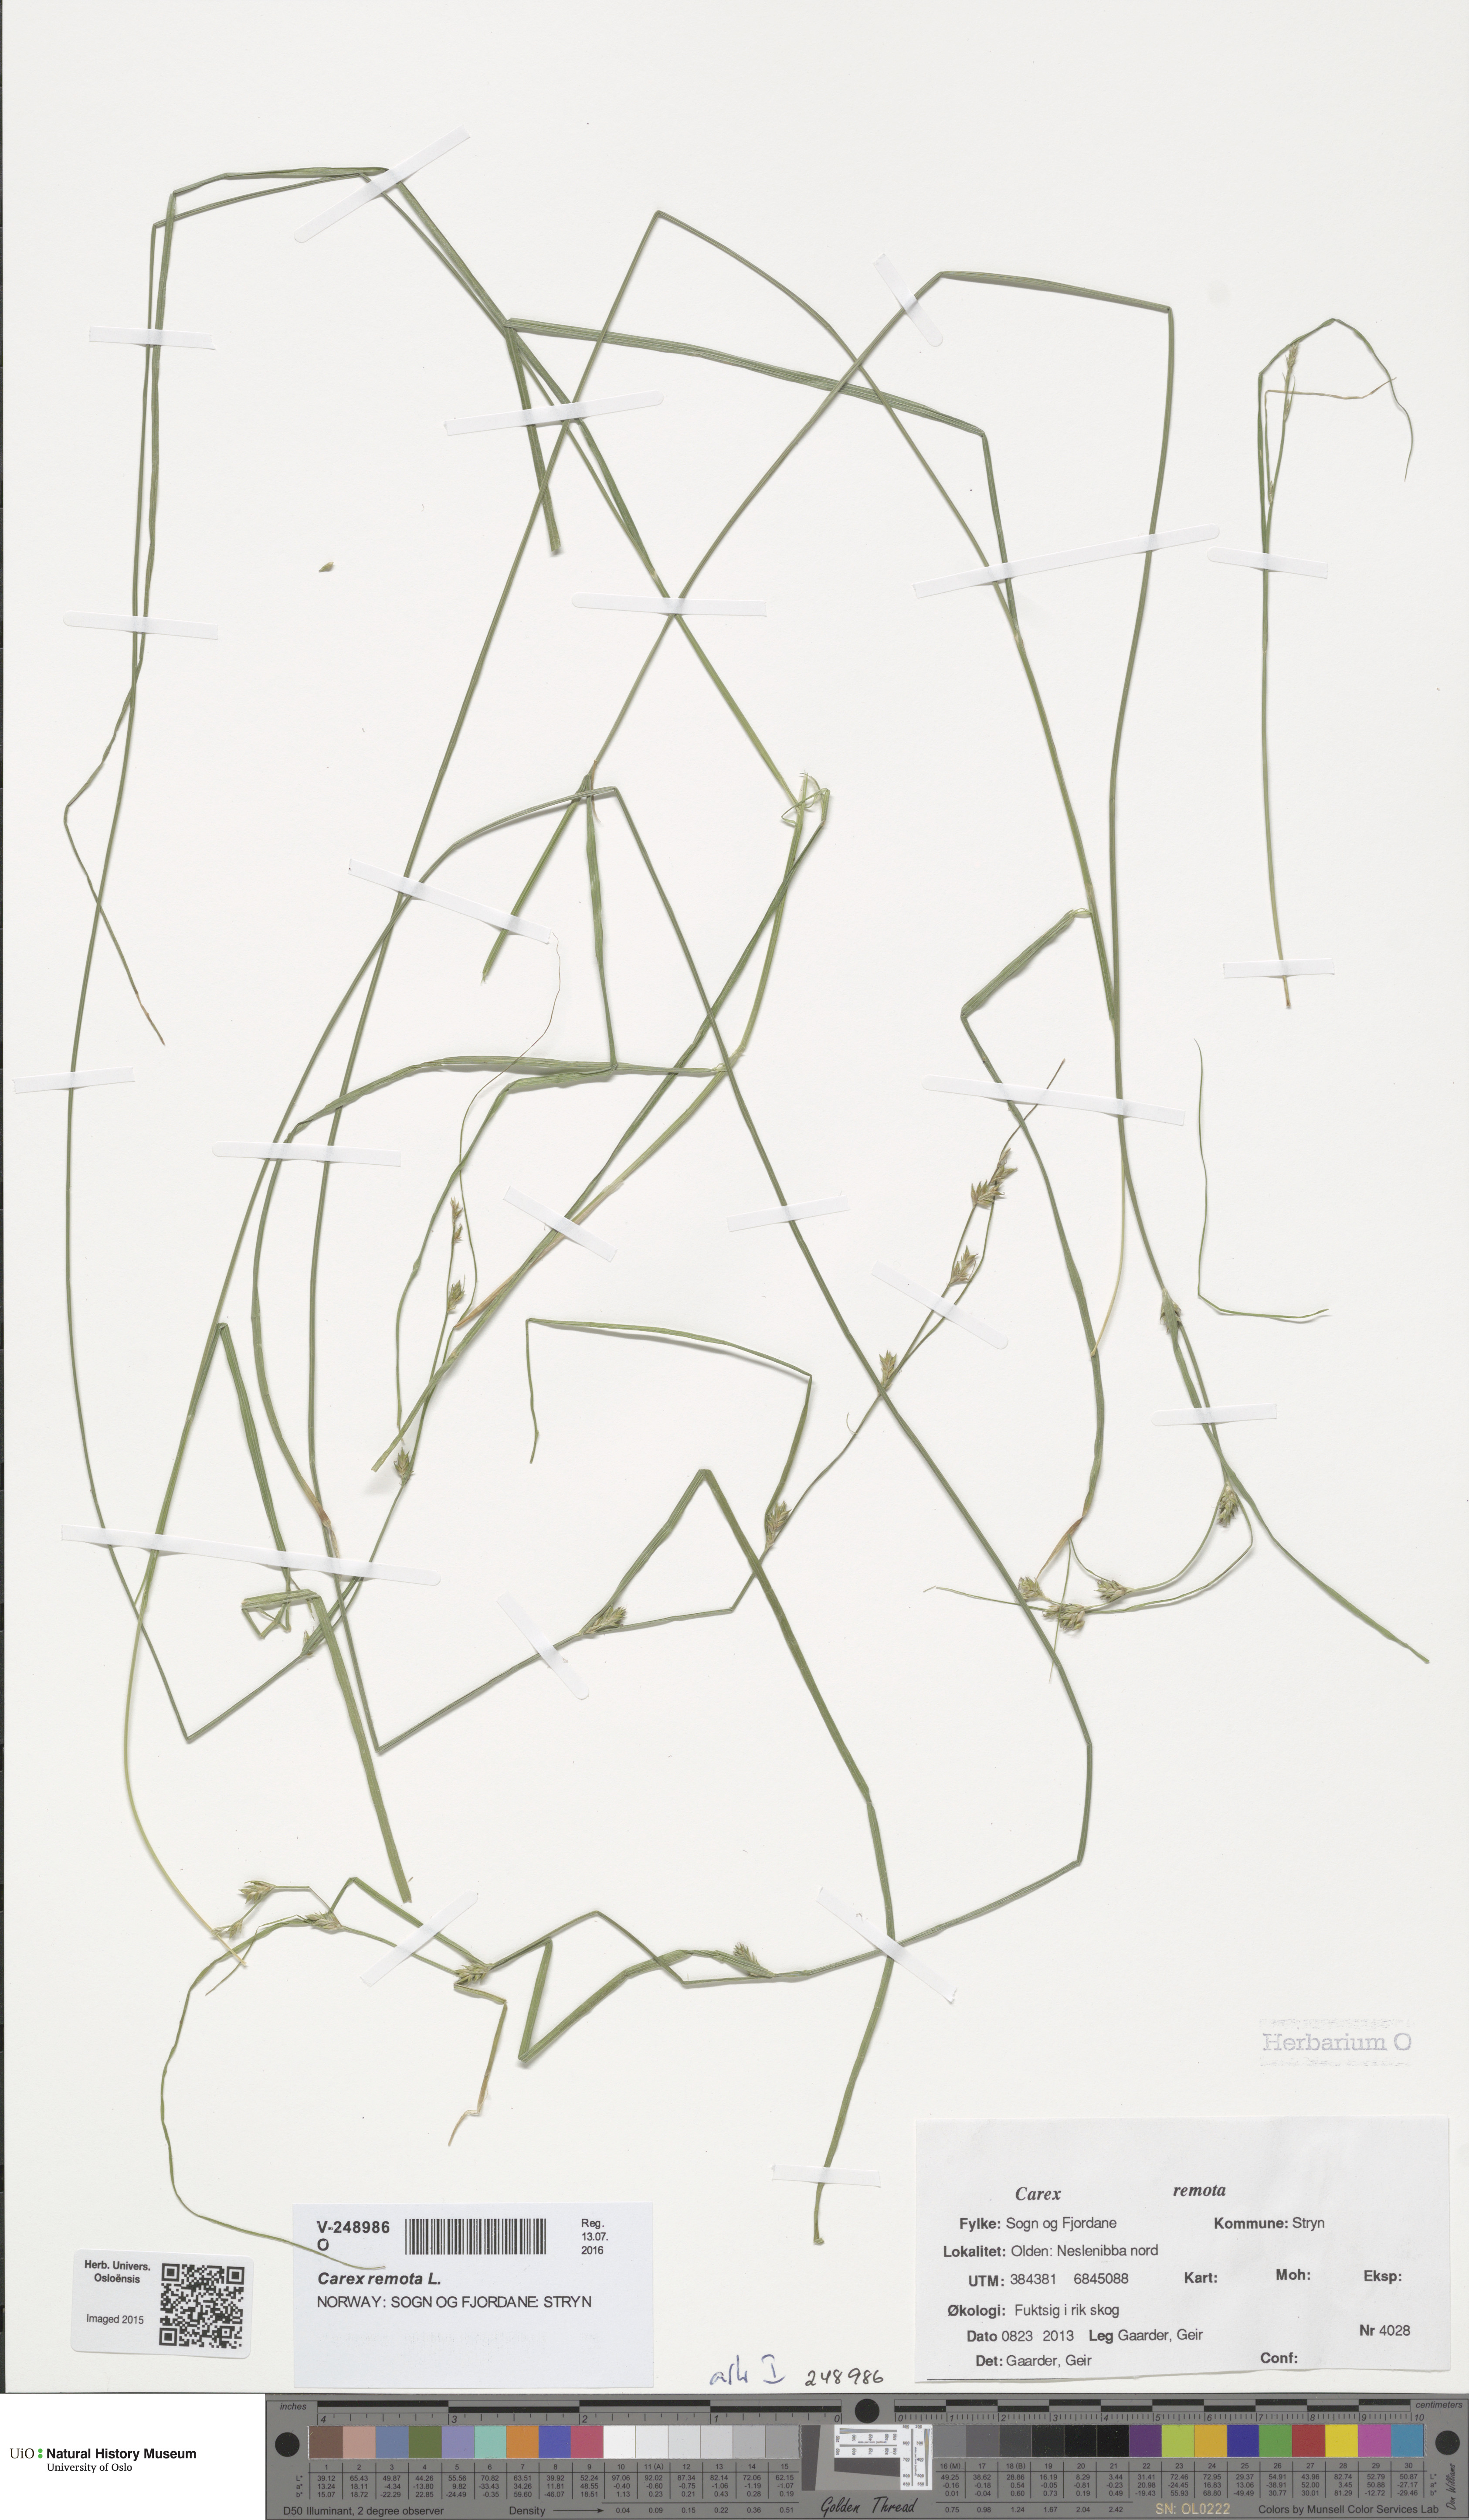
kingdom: Plantae
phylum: Tracheophyta
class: Liliopsida
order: Poales
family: Cyperaceae
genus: Carex
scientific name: Carex remota
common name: Remote sedge
